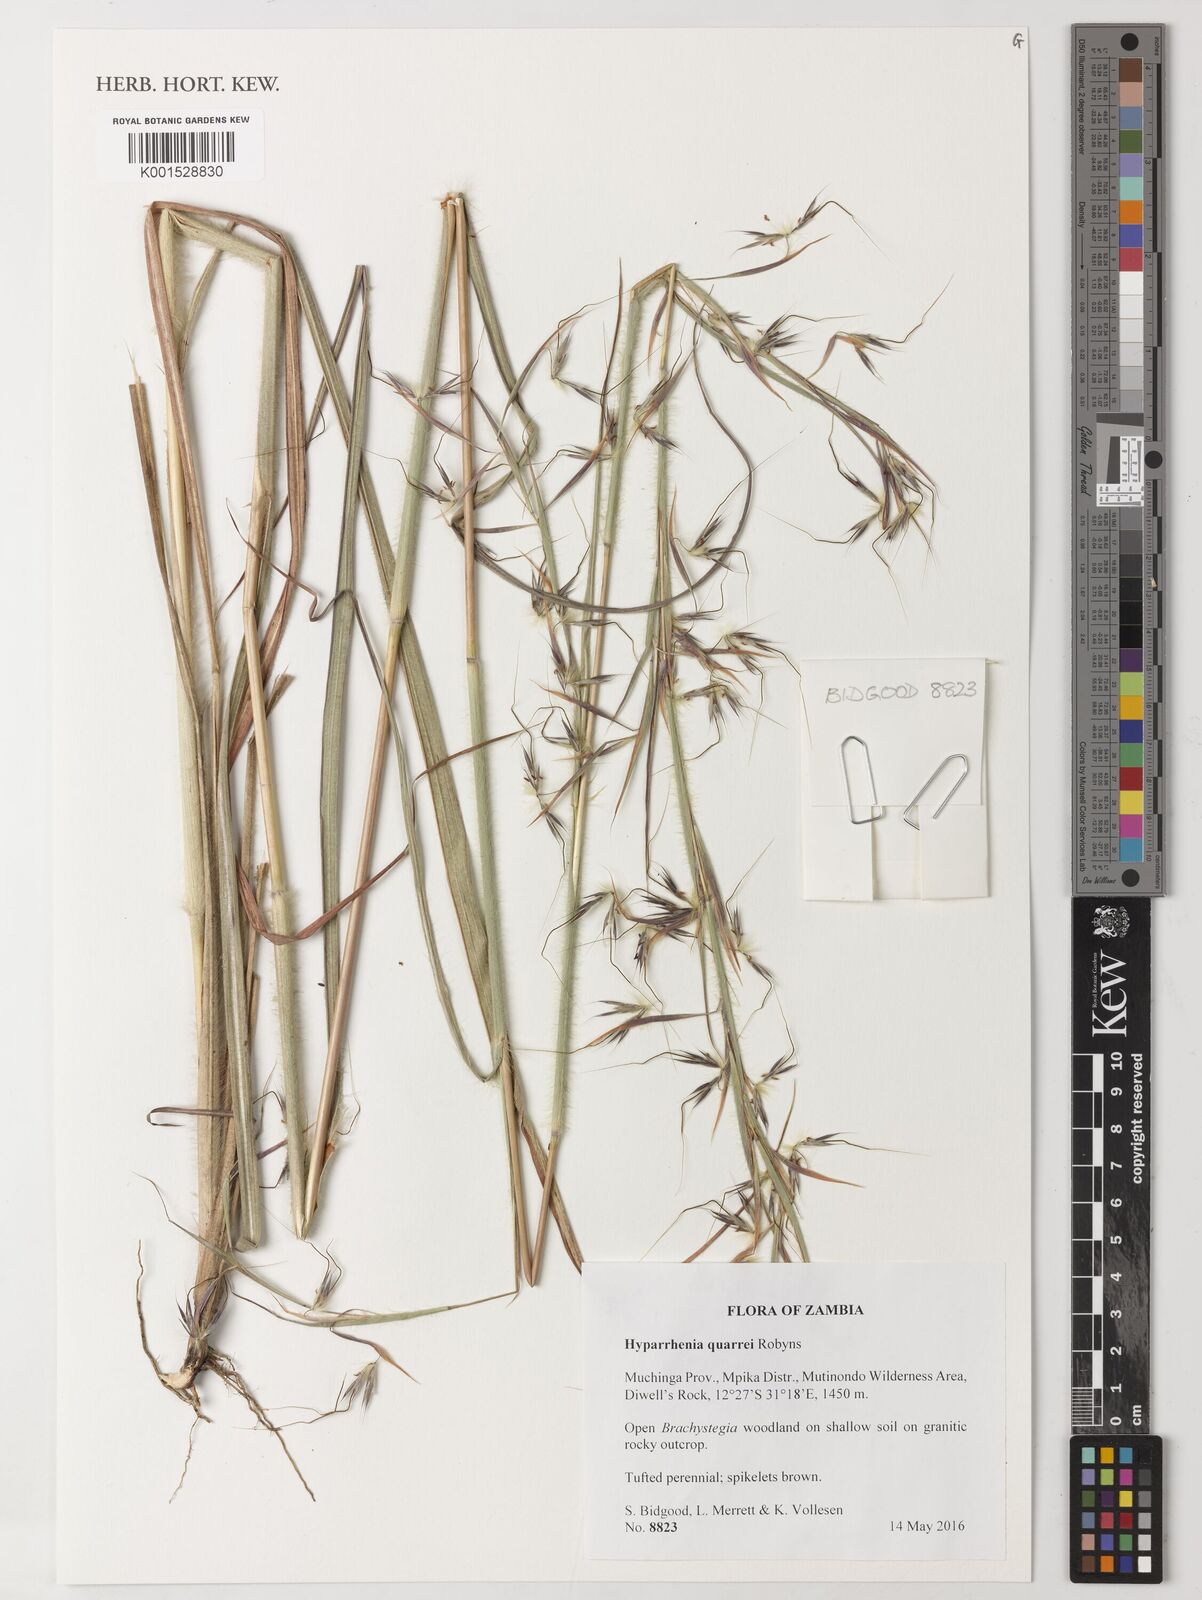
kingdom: Plantae
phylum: Tracheophyta
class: Liliopsida
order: Poales
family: Poaceae
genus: Hyparrhenia
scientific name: Hyparrhenia quarrei
